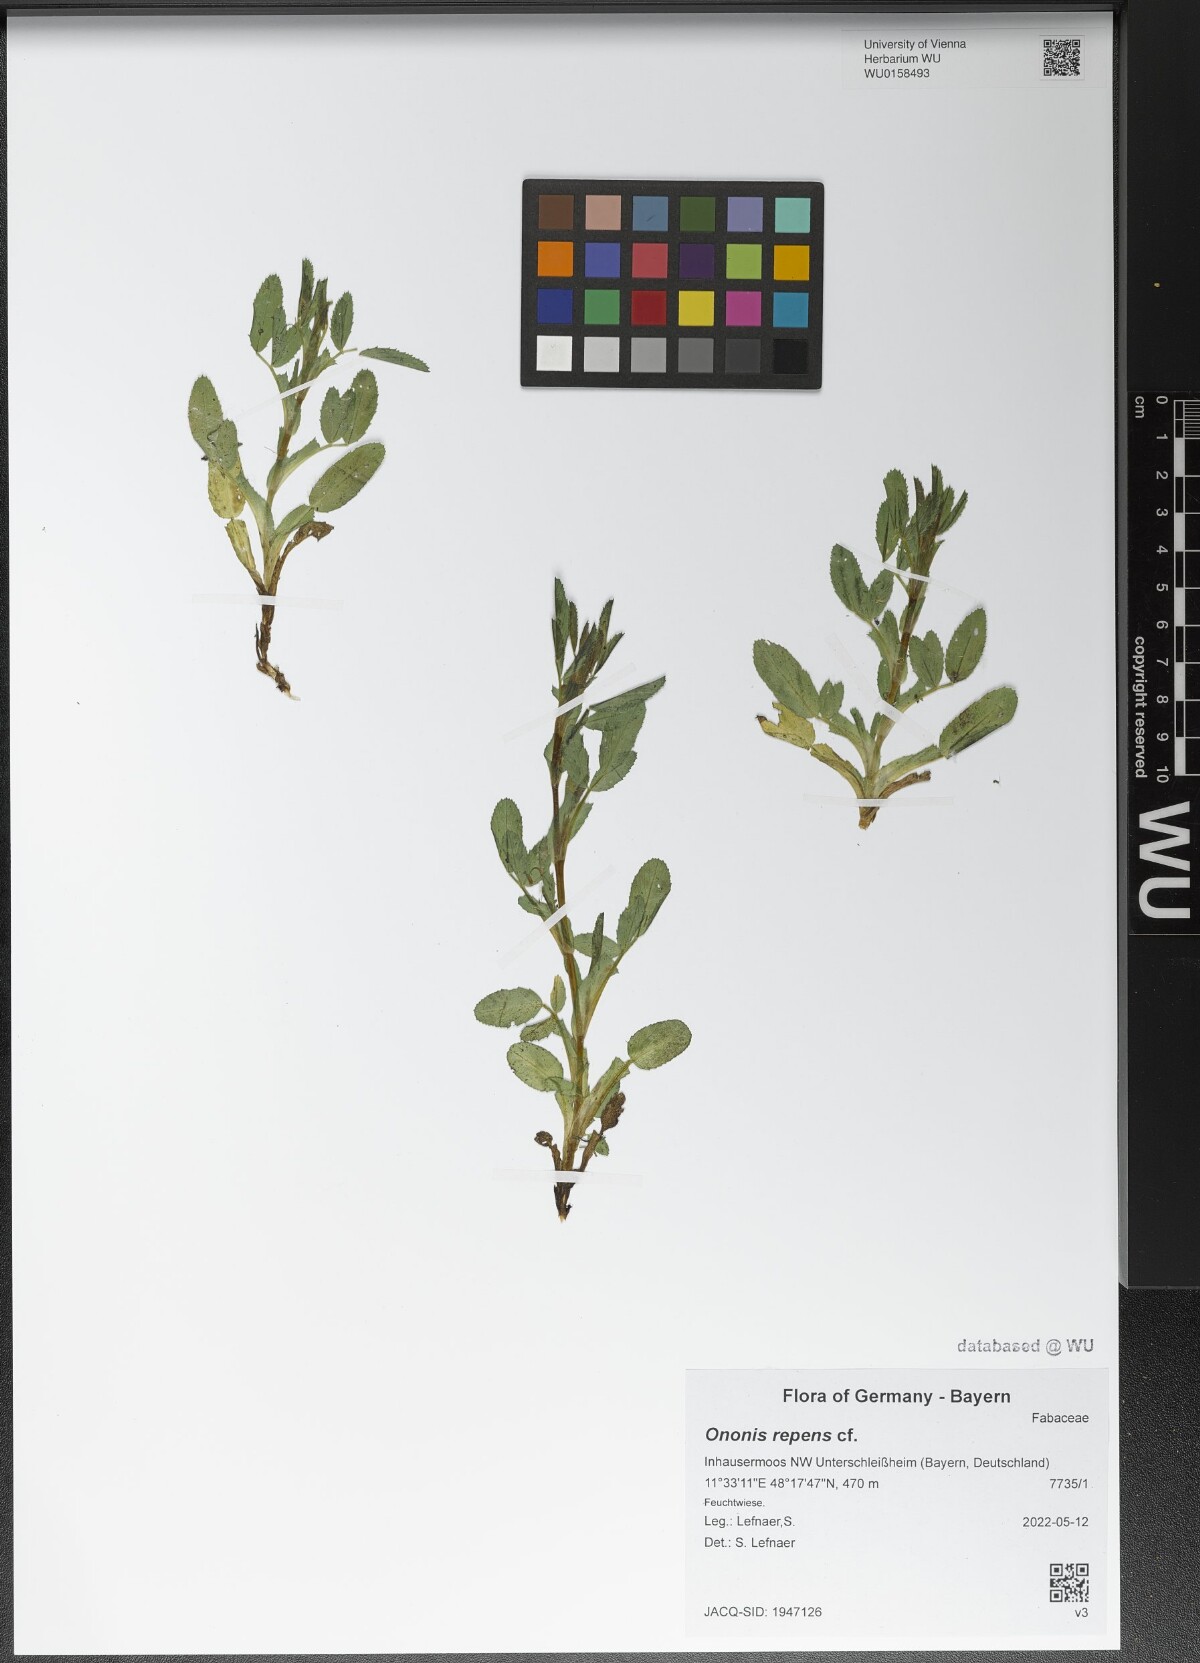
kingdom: Plantae
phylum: Tracheophyta
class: Magnoliopsida
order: Fabales
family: Fabaceae
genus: Ononis
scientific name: Ononis spinosa
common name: Spiny restharrow
